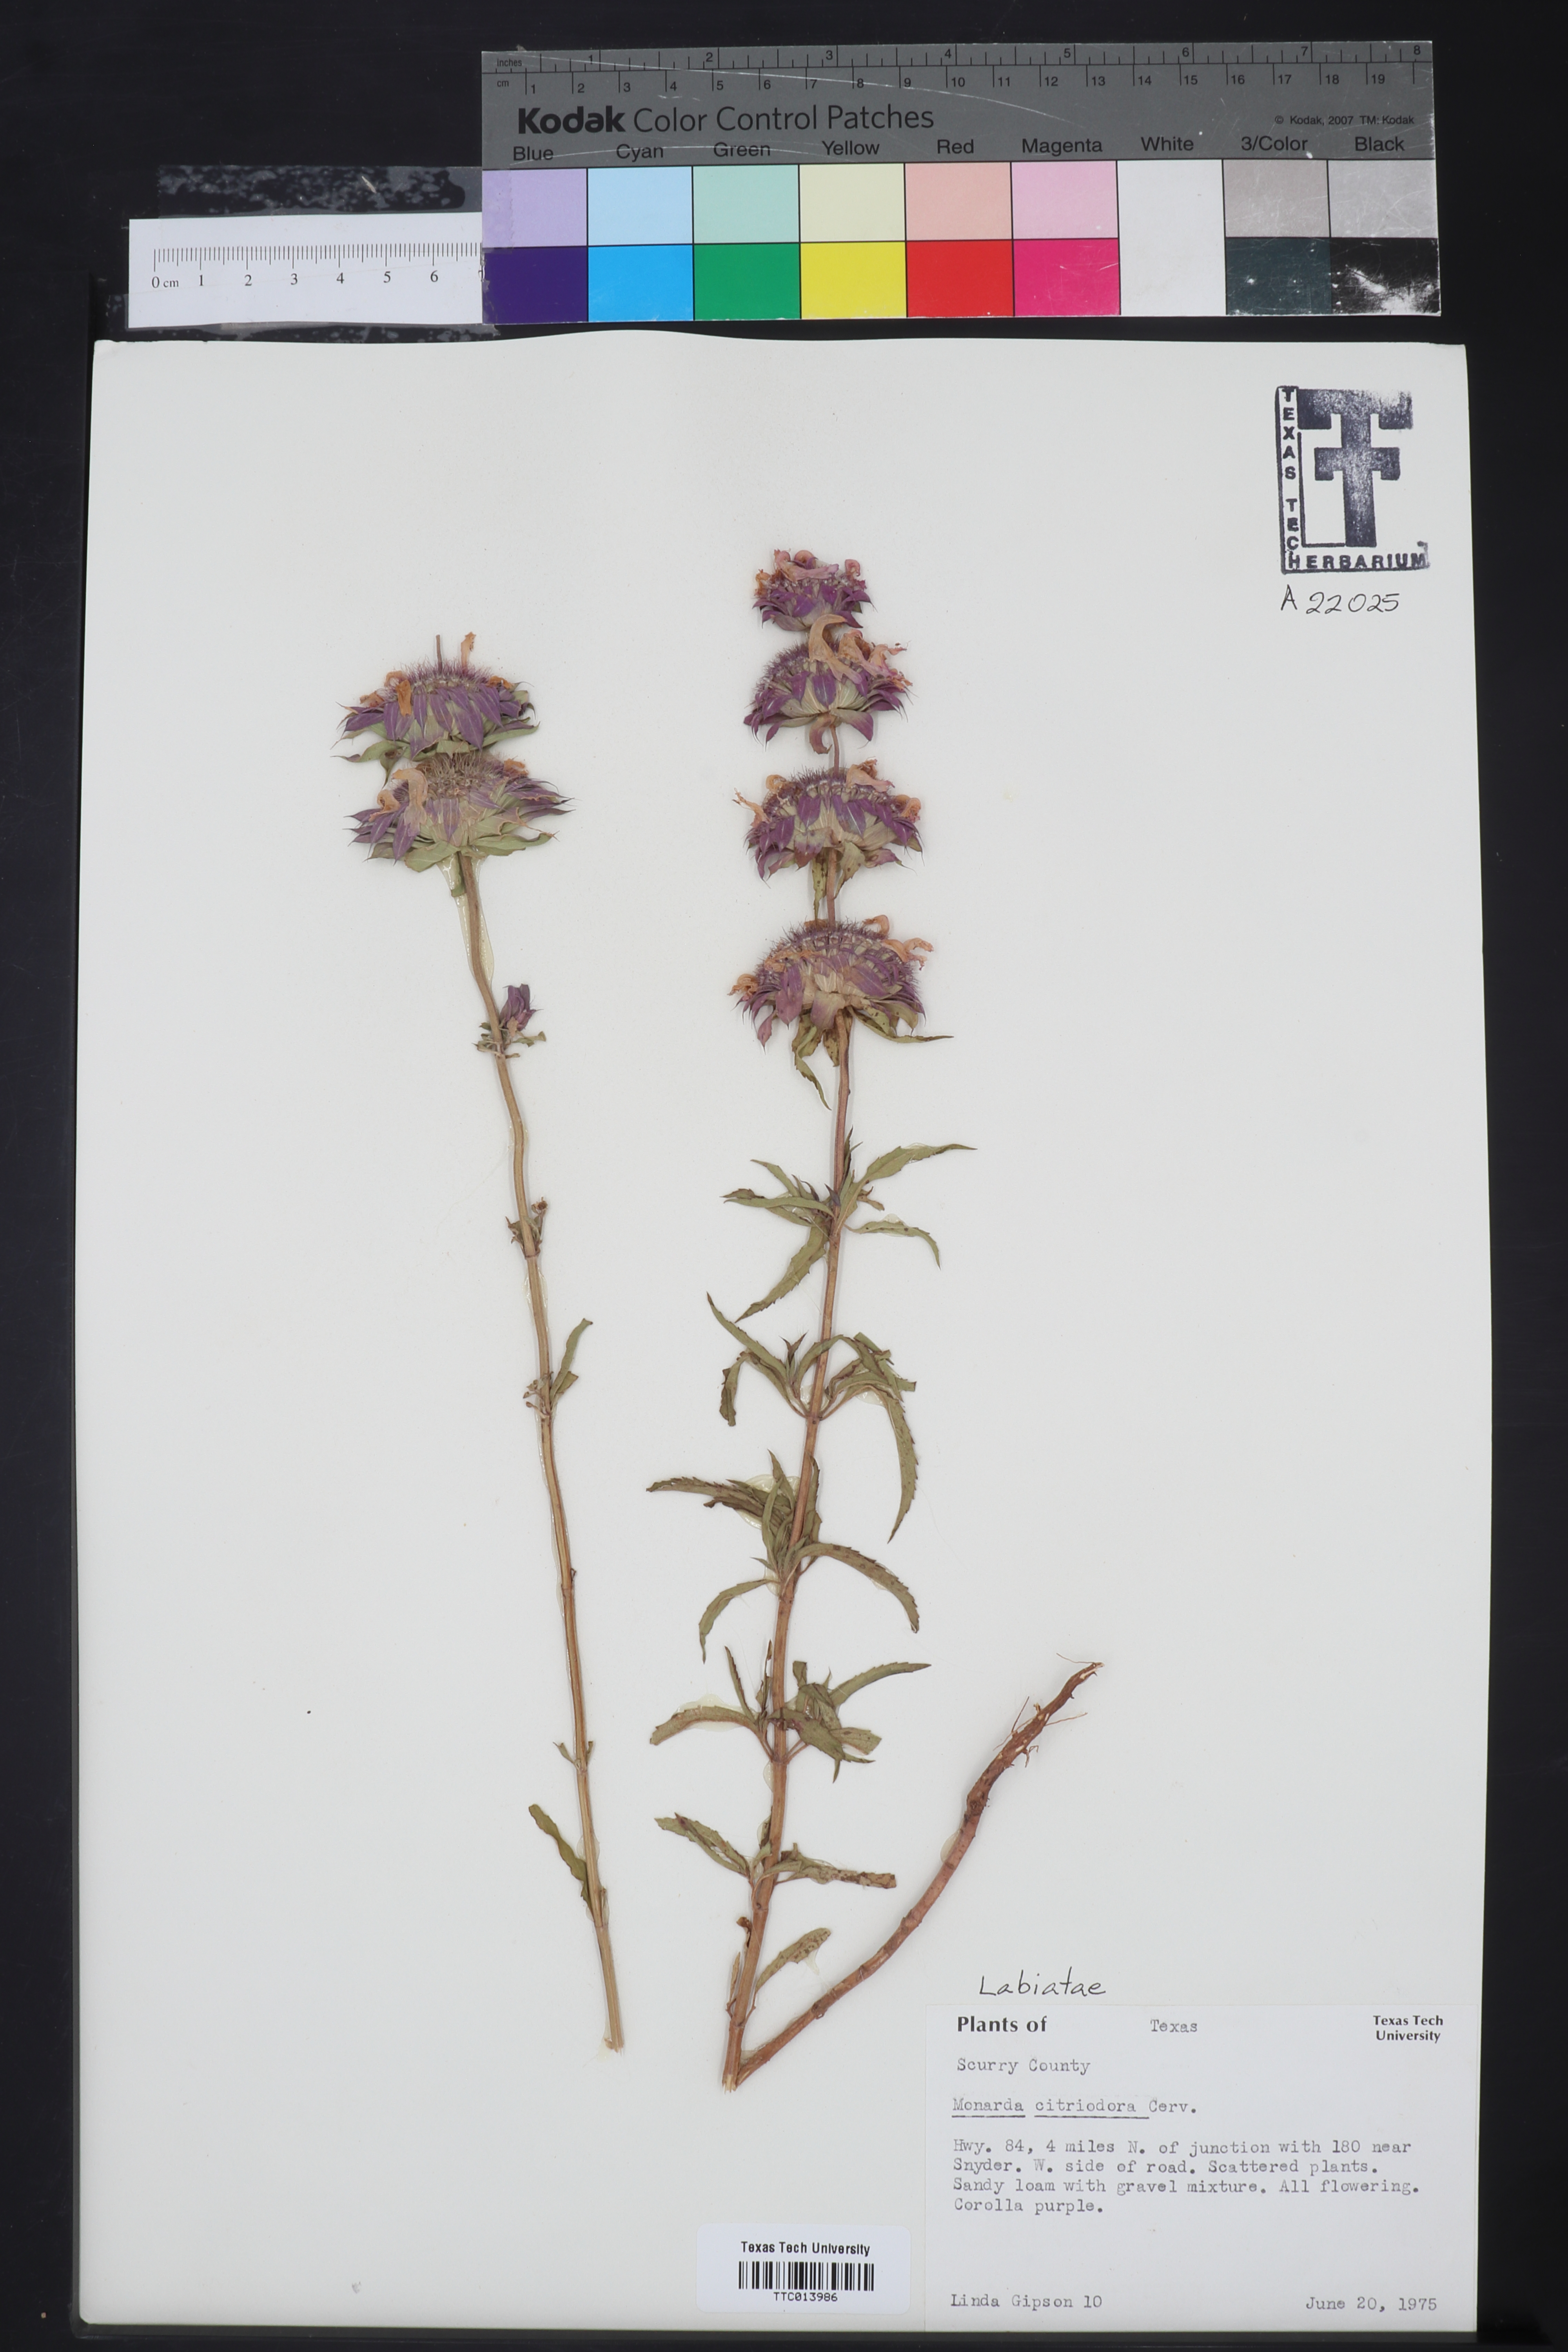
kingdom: Plantae
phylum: Tracheophyta
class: Magnoliopsida
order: Lamiales
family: Lamiaceae
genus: Monarda
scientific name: Monarda citriodora
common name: Lemon beebalm
